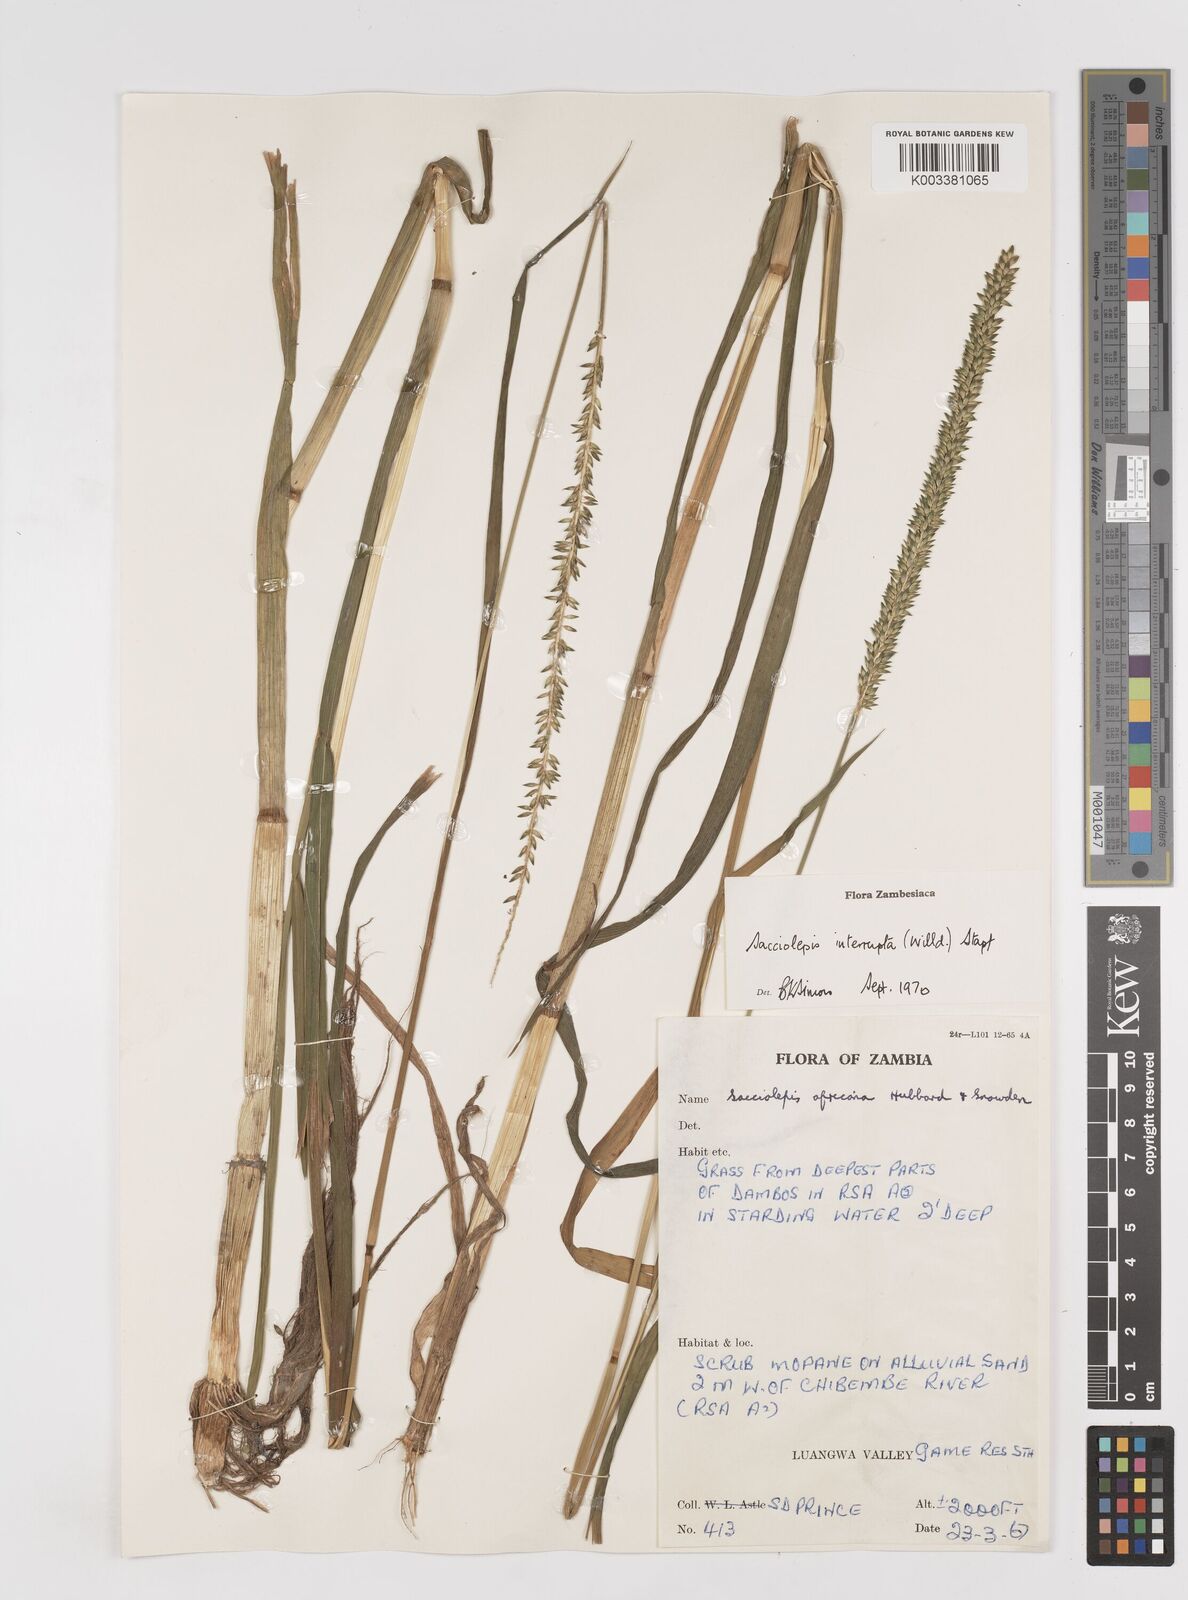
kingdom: Plantae
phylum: Tracheophyta
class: Liliopsida
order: Poales
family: Poaceae
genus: Sacciolepis
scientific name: Sacciolepis interrupta
